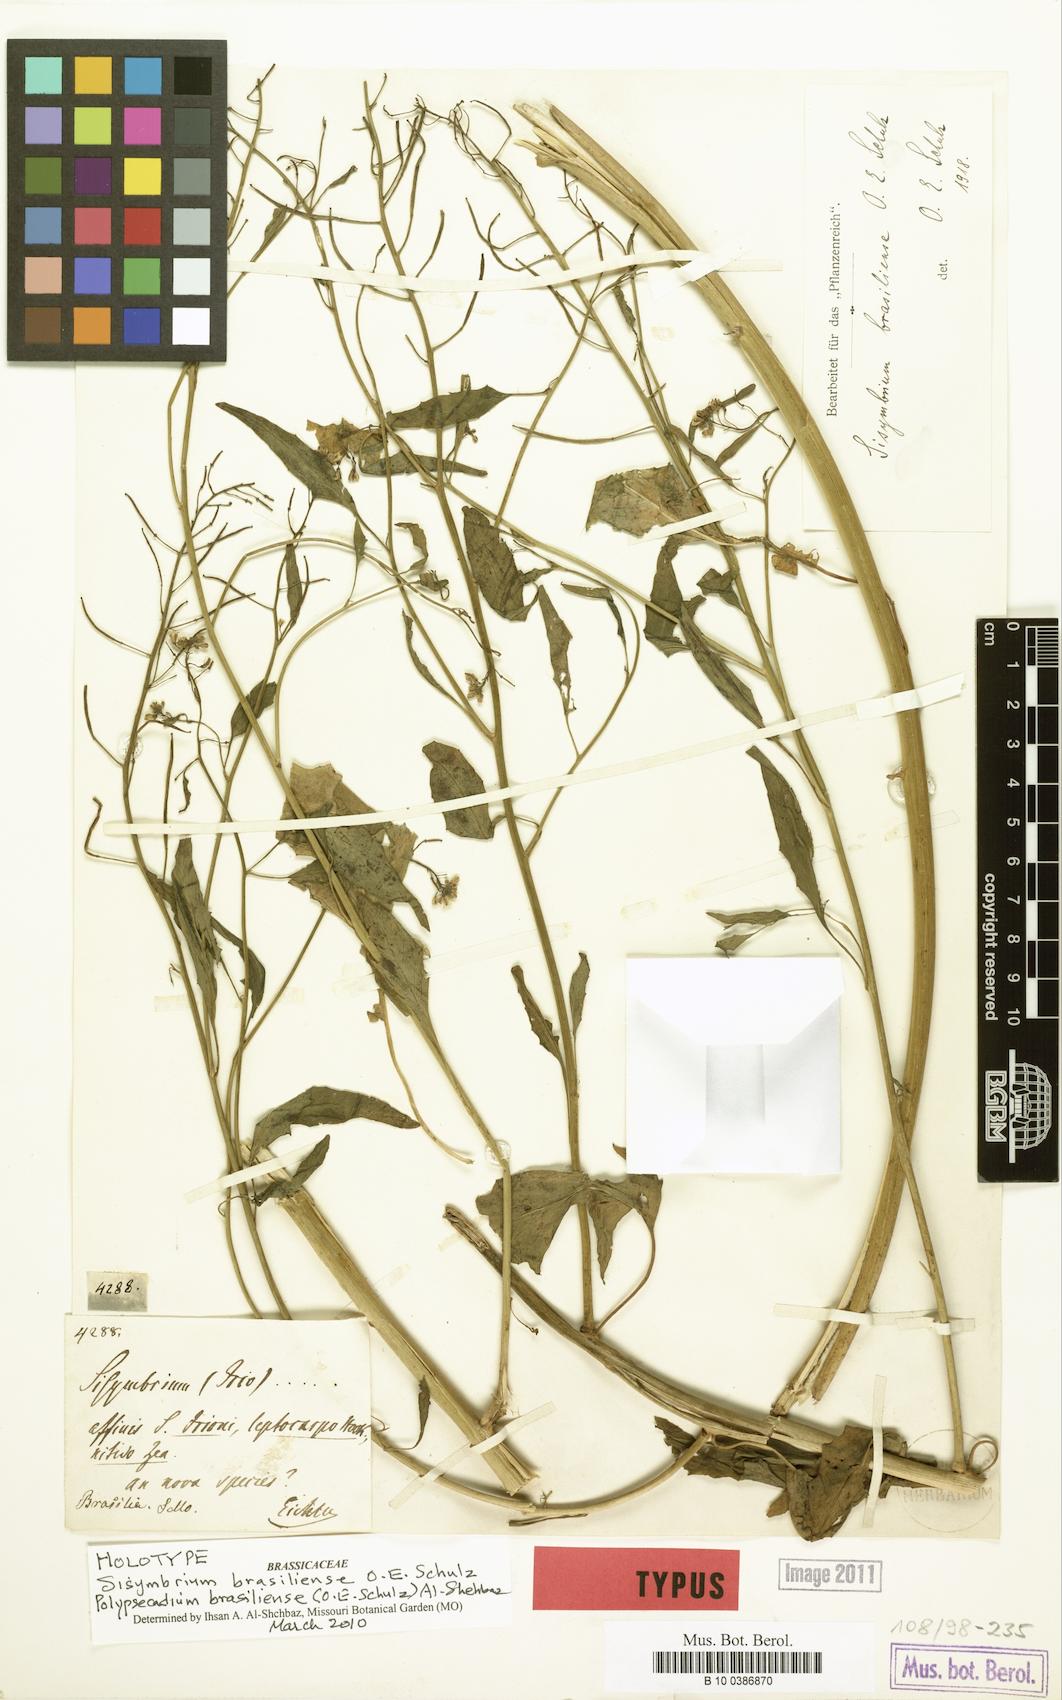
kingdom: Plantae
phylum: Tracheophyta
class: Magnoliopsida
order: Brassicales
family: Brassicaceae
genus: Polypsecadium
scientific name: Polypsecadium brasiliense
